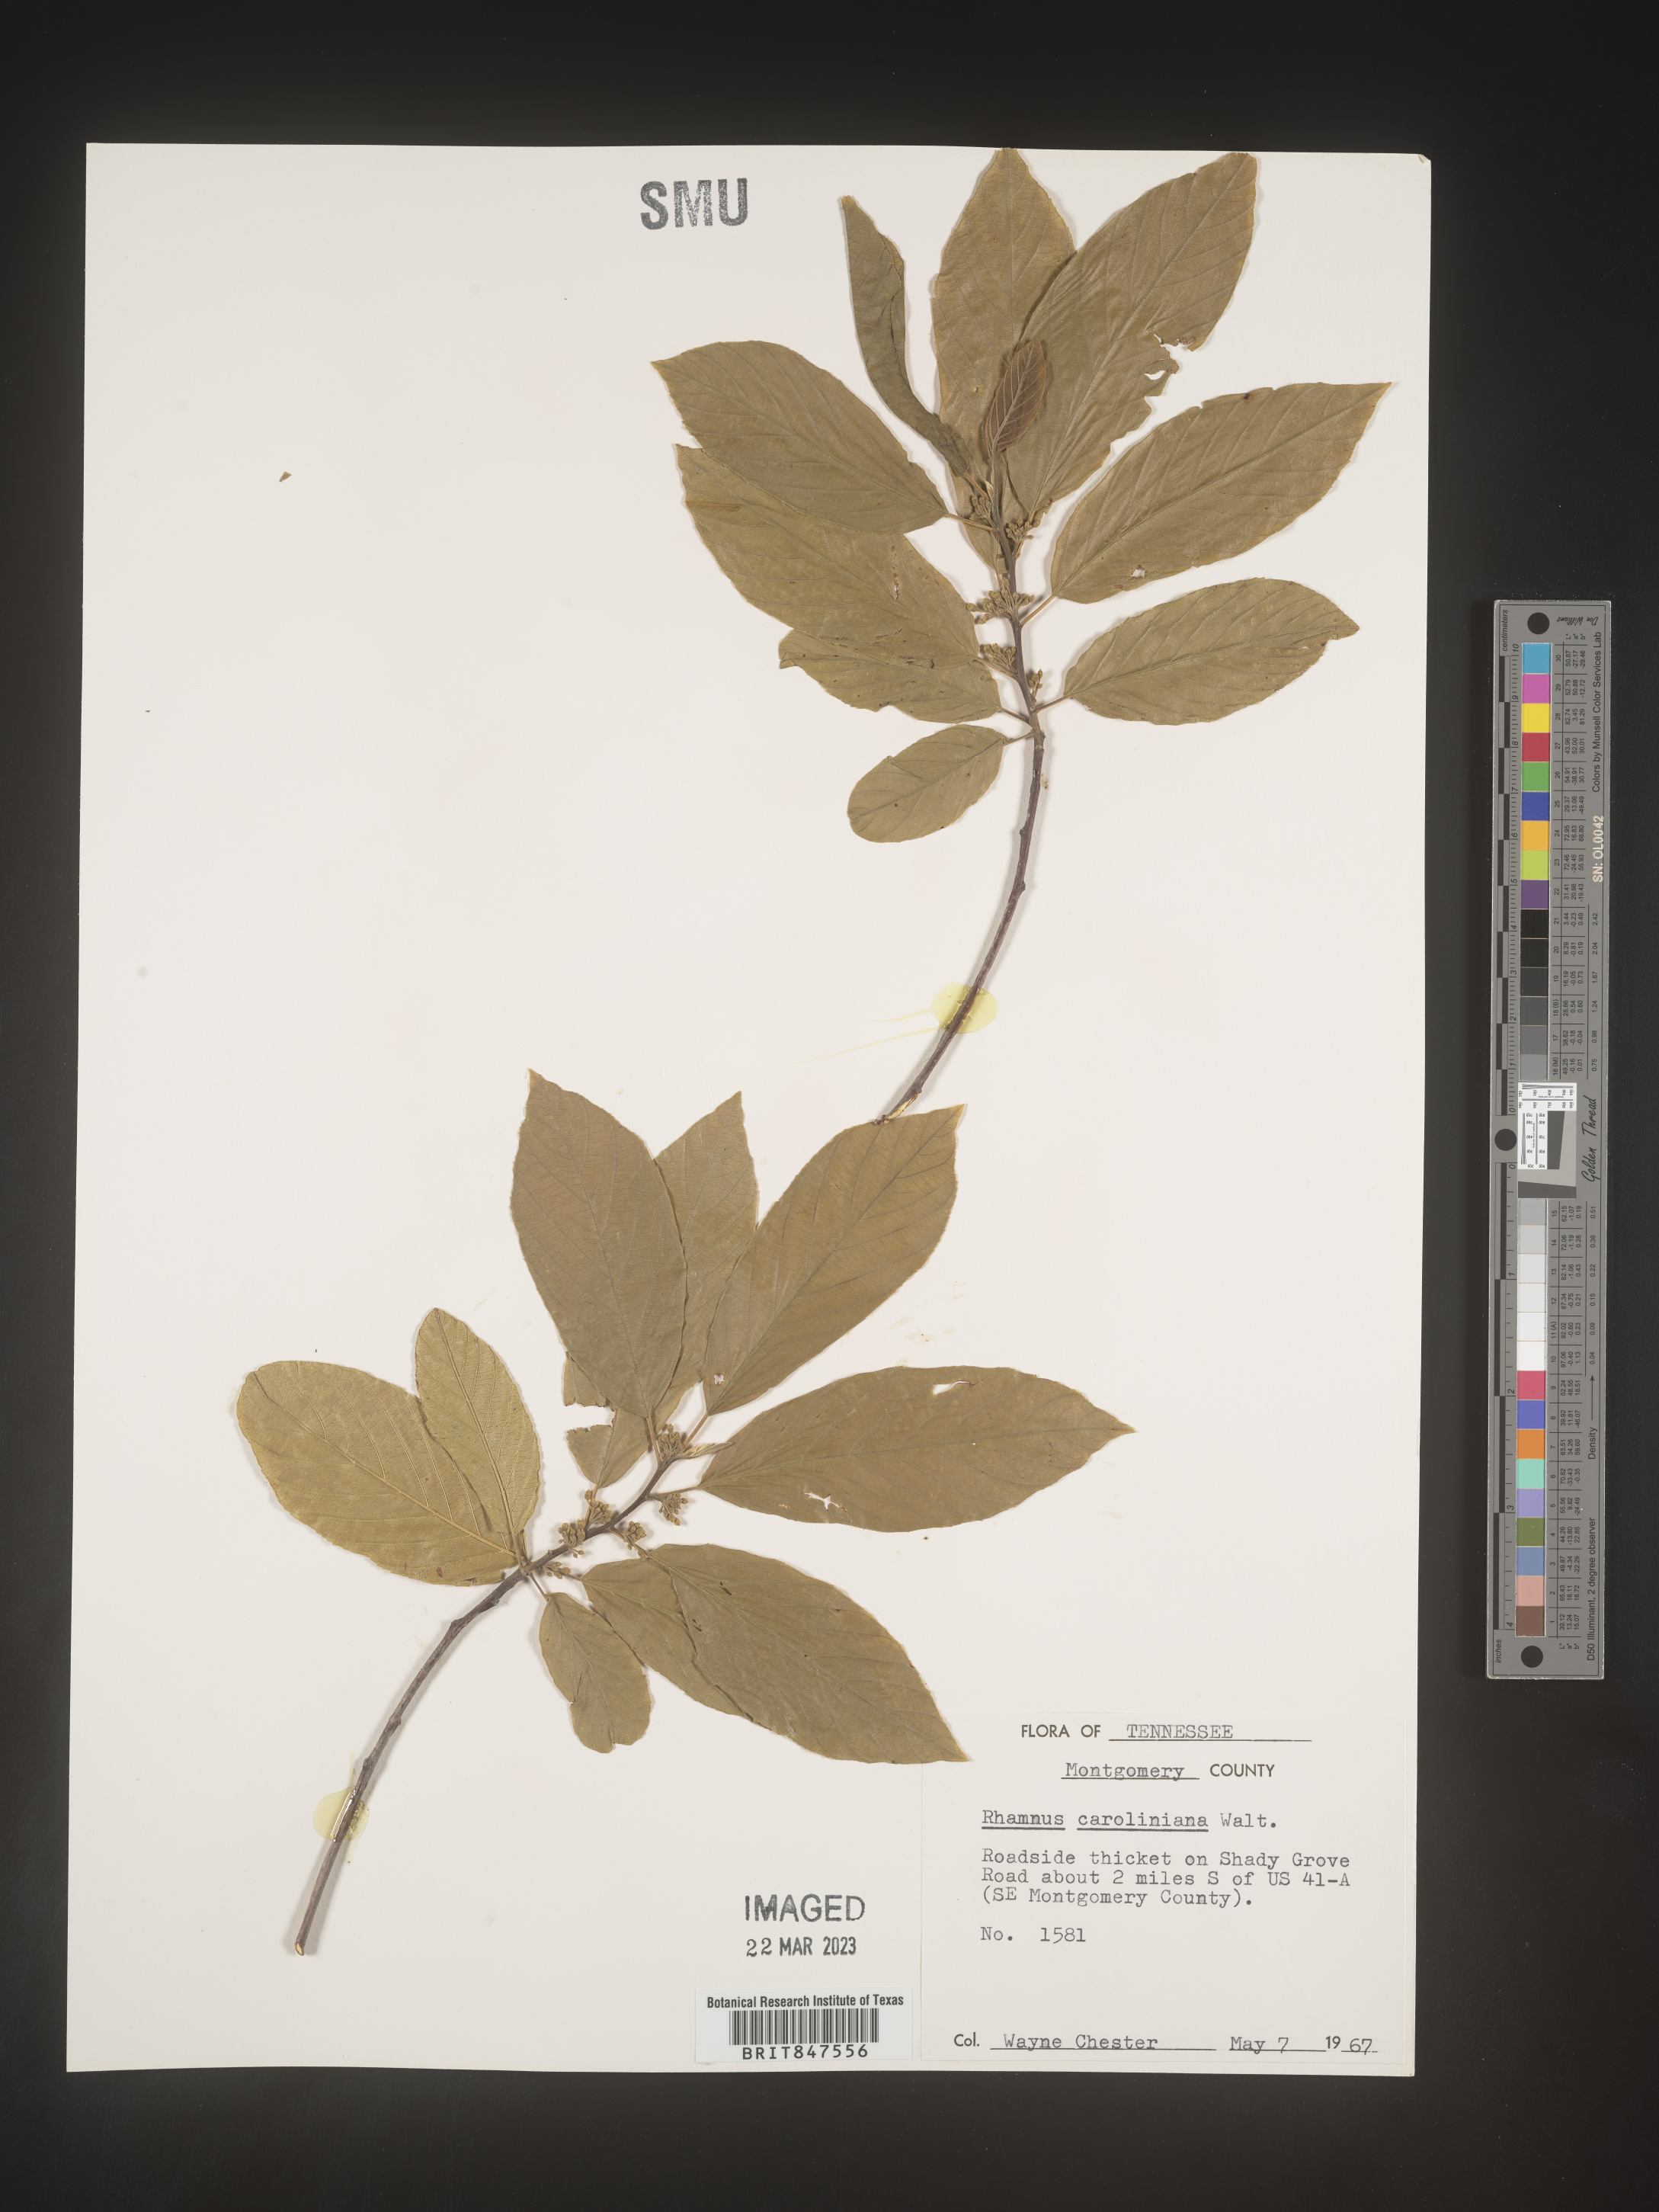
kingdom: Plantae
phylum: Tracheophyta
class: Magnoliopsida
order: Rosales
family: Rhamnaceae
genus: Frangula
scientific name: Frangula caroliniana
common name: Carolina buckthorn
